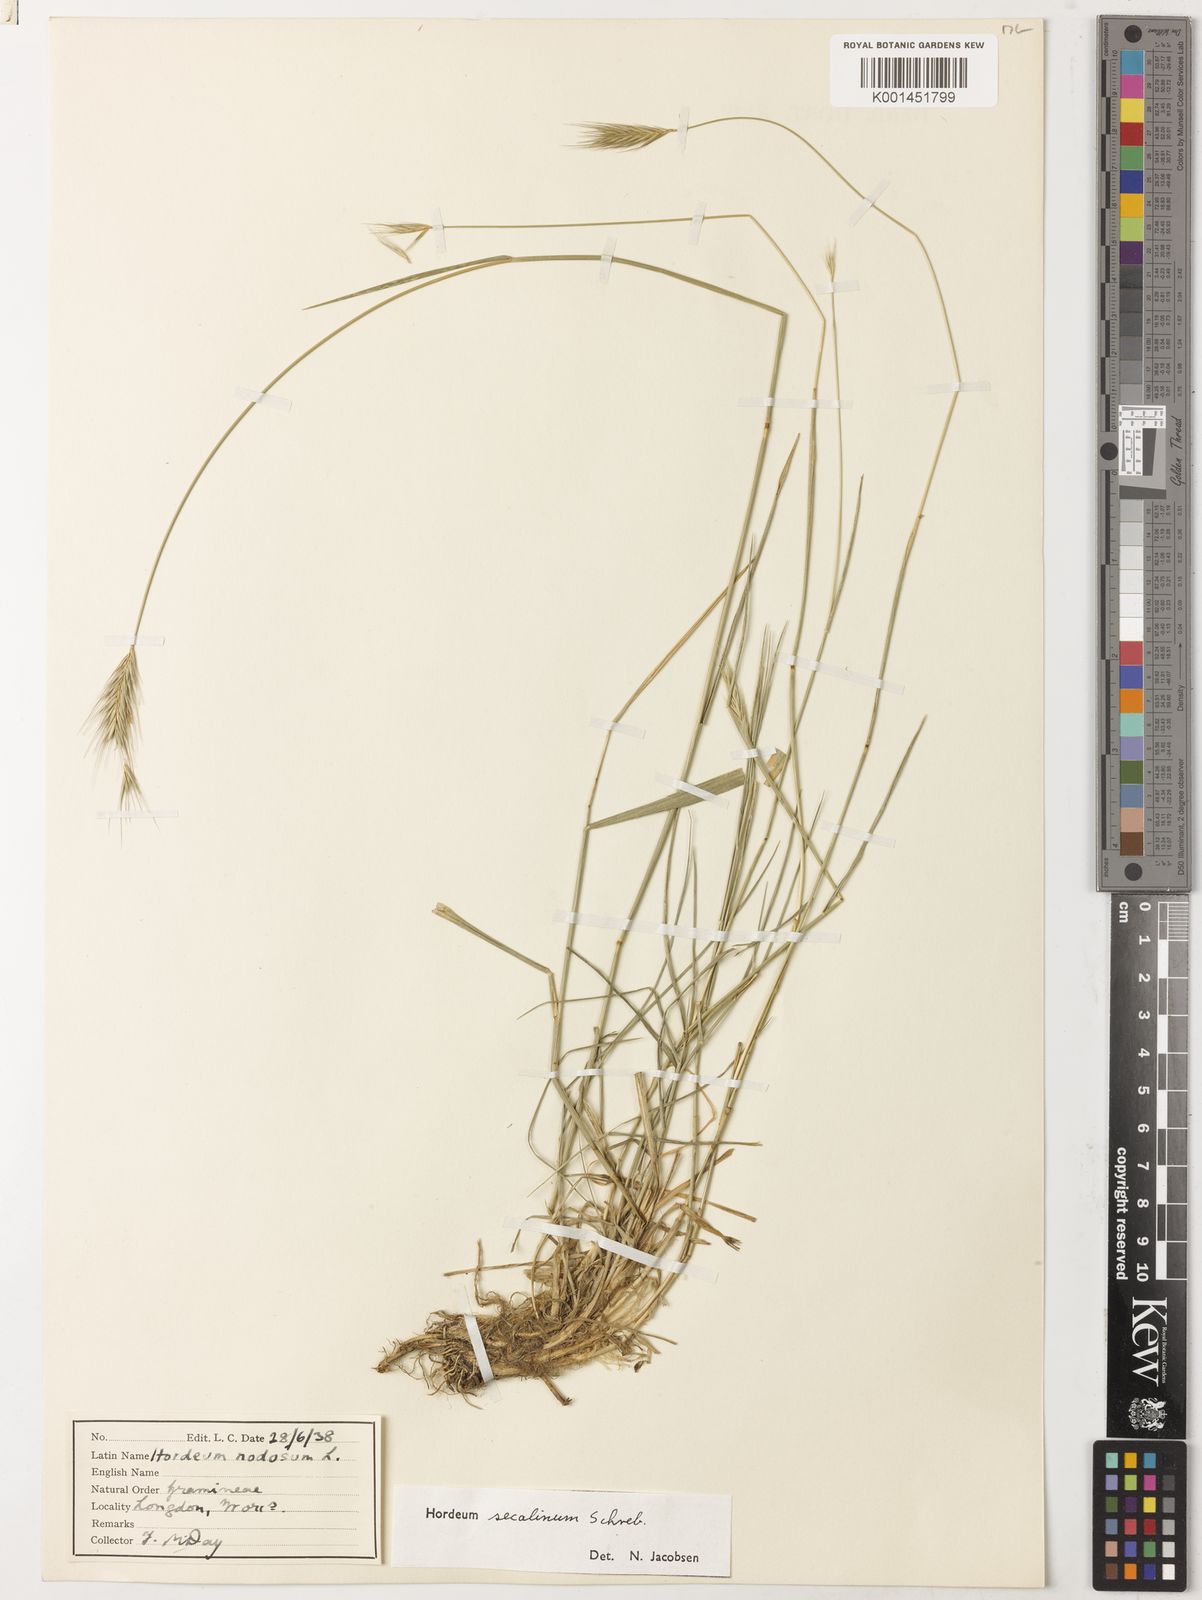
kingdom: Plantae
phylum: Tracheophyta
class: Liliopsida
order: Poales
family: Poaceae
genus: Hordeum
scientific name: Hordeum secalinum
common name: Meadow barley
